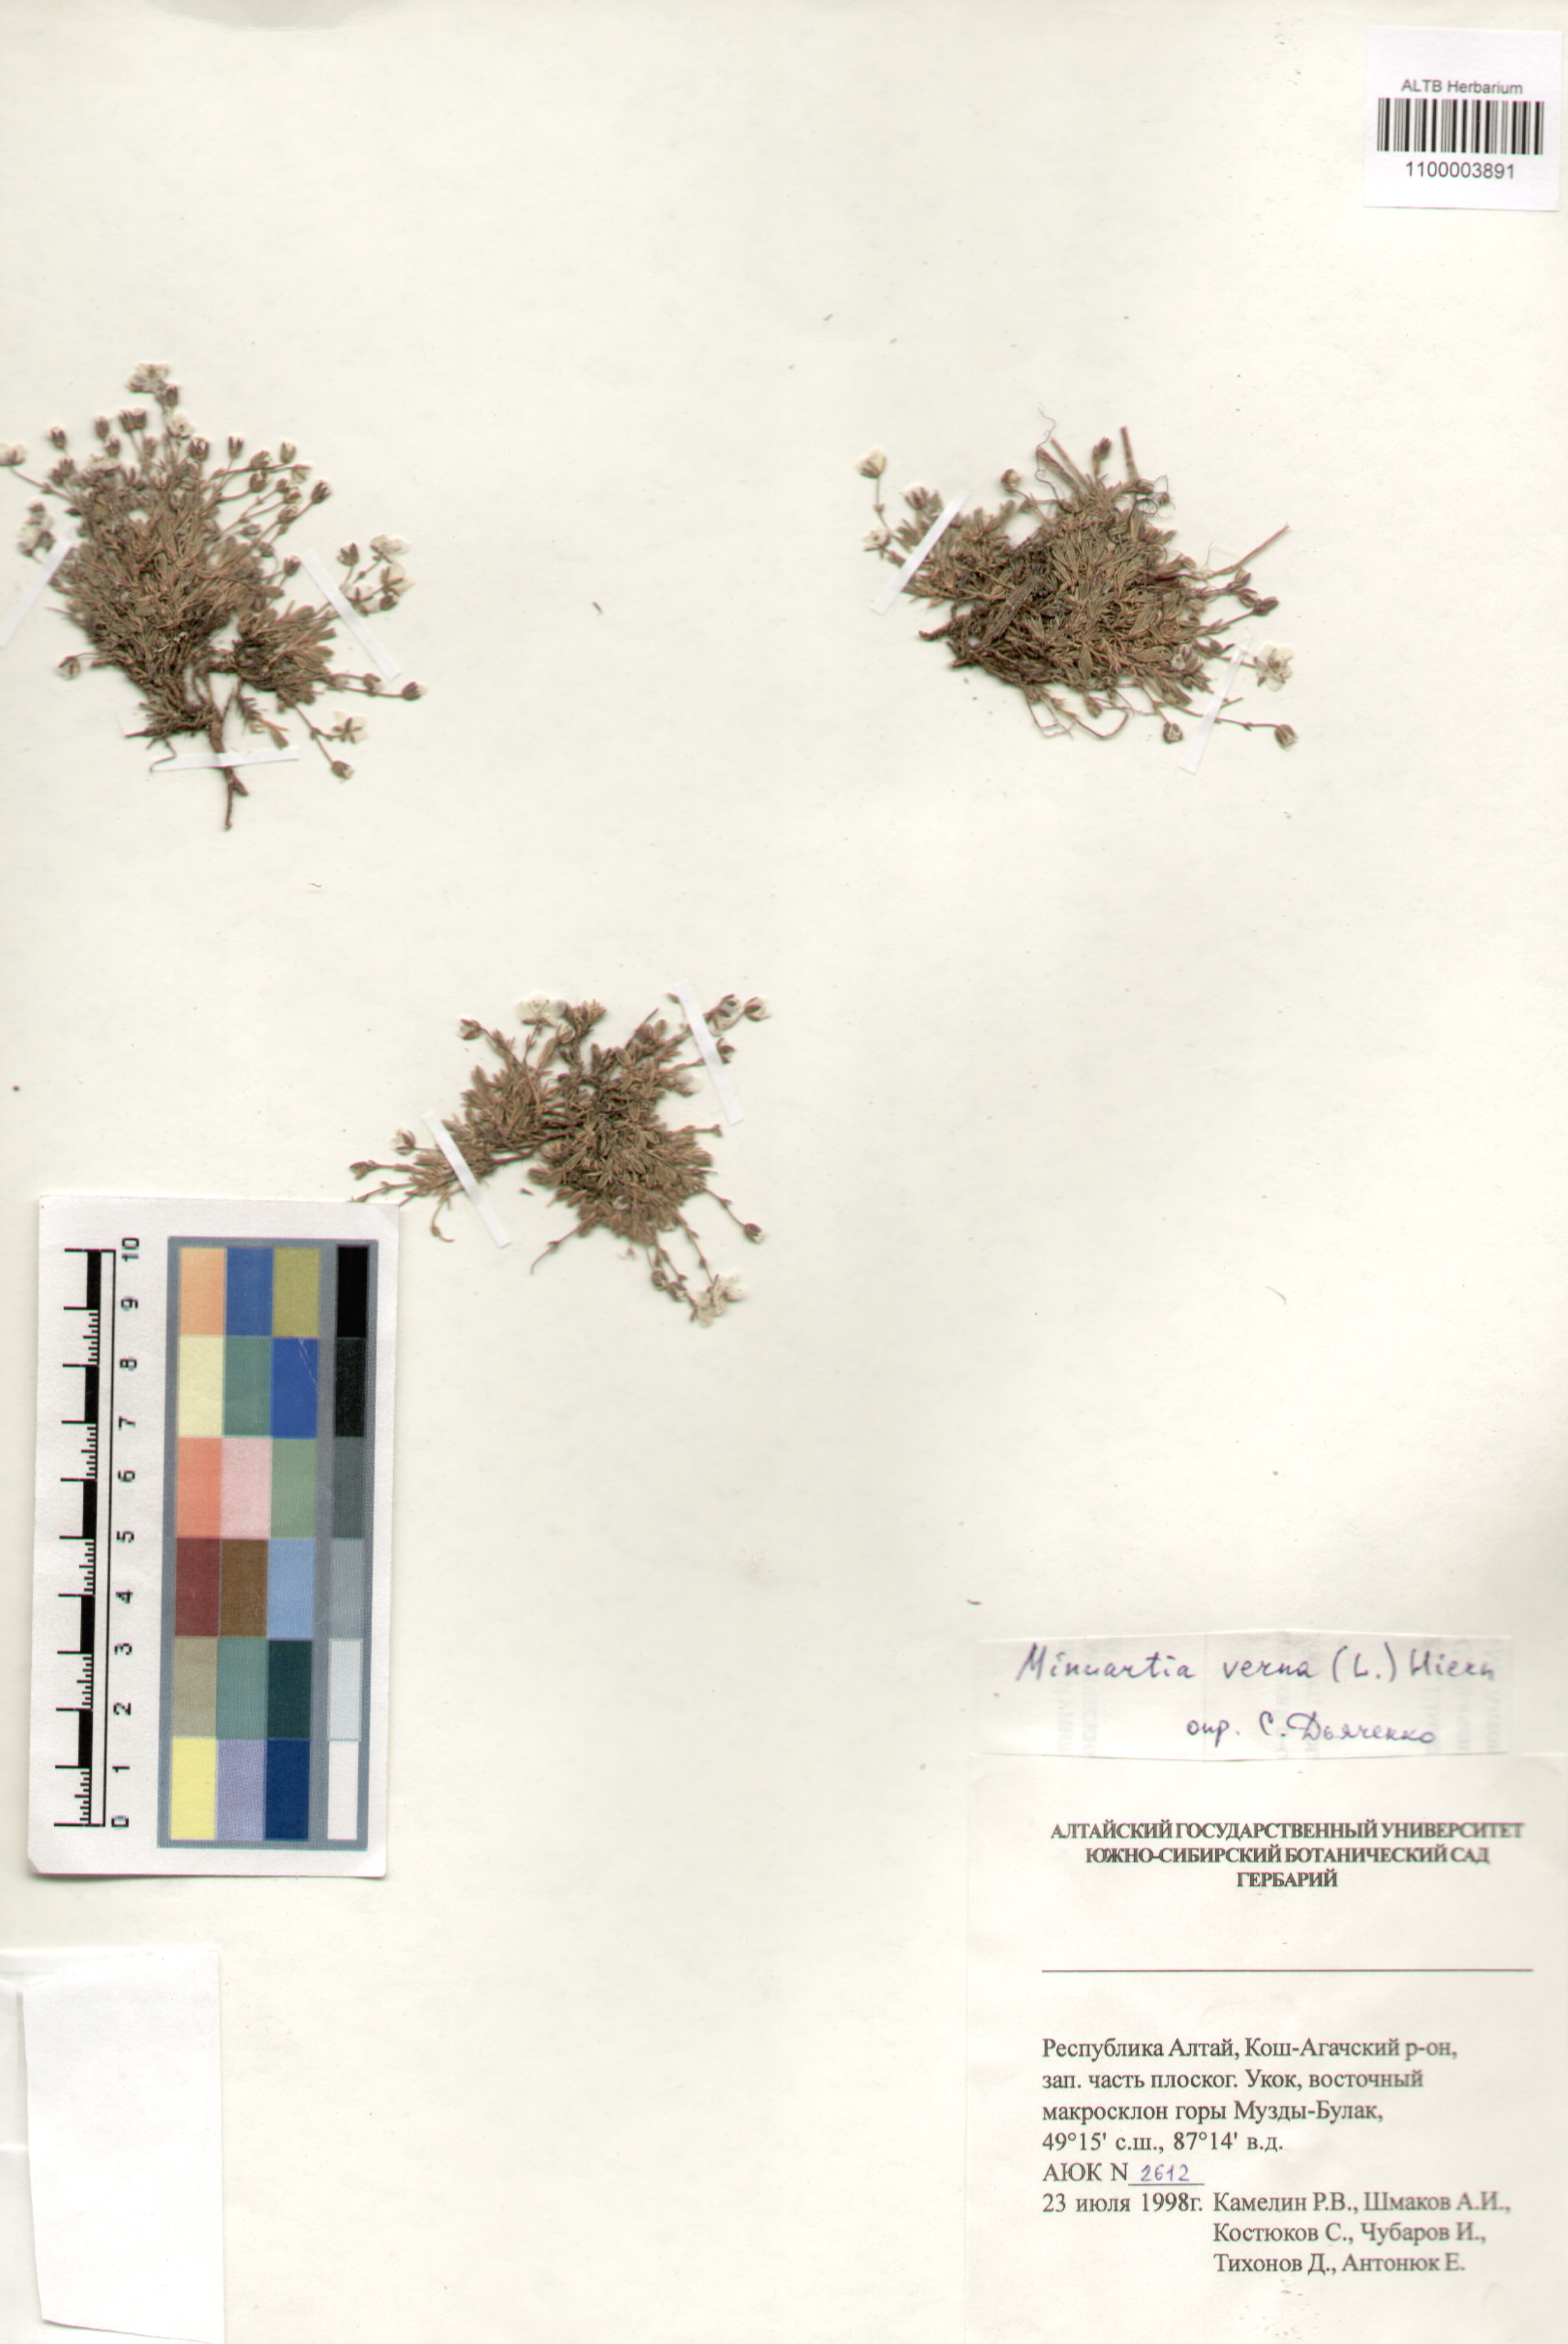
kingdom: Plantae
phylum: Tracheophyta
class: Magnoliopsida
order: Caryophyllales
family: Caryophyllaceae
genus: Sabulina
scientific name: Sabulina verna
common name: Spring sandwort
